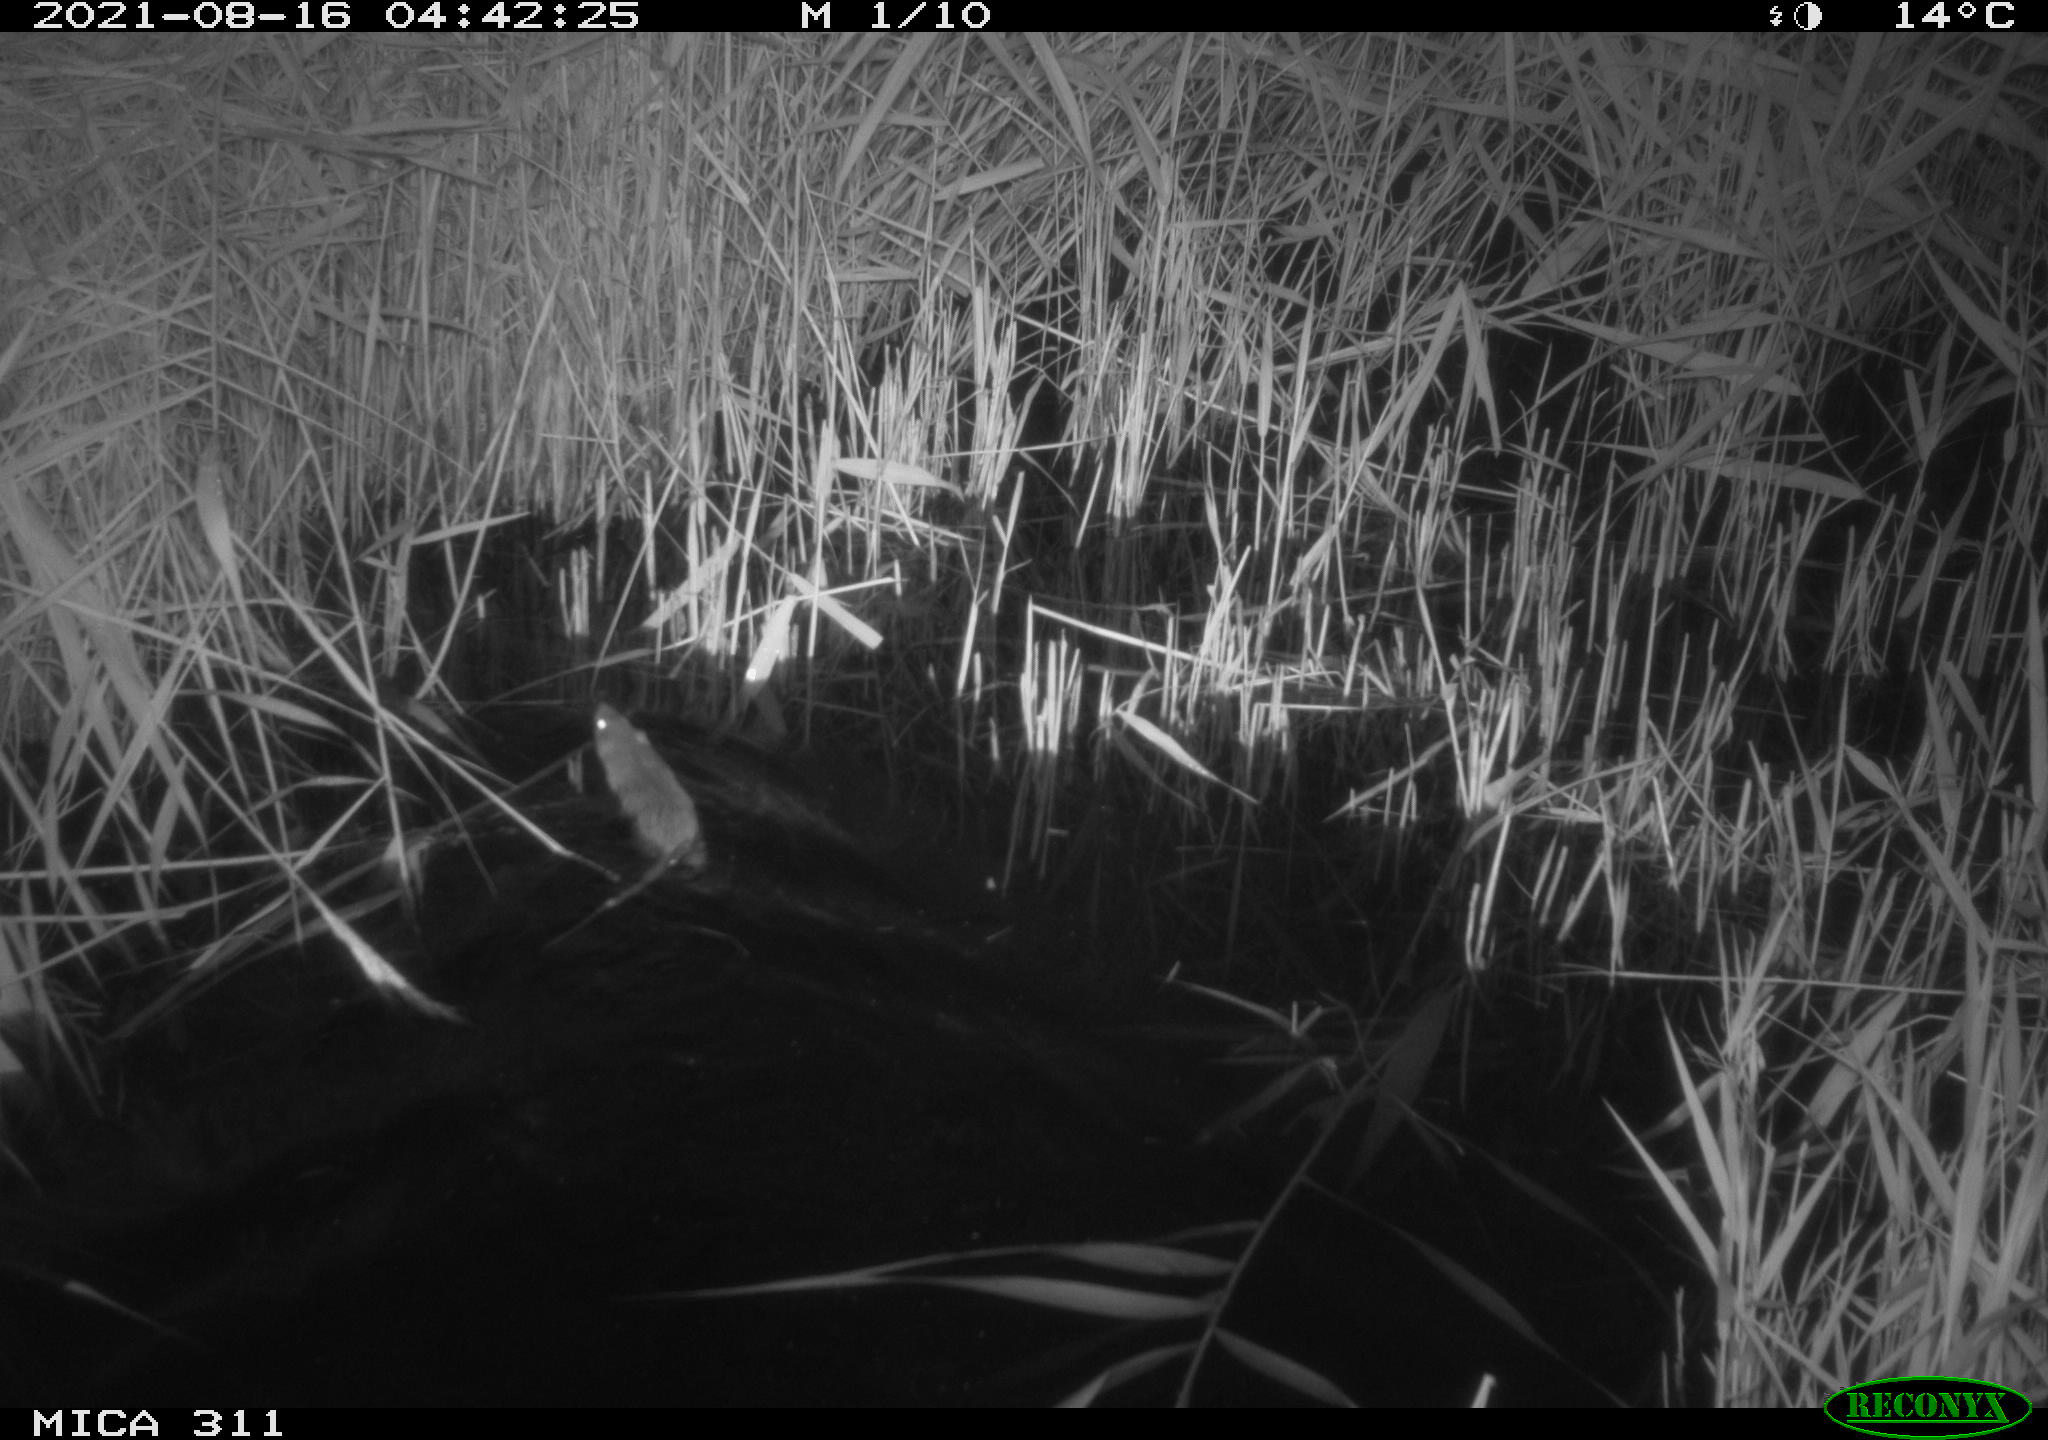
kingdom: Animalia
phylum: Chordata
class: Mammalia
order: Rodentia
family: Muridae
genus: Rattus
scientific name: Rattus norvegicus
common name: Brown rat
